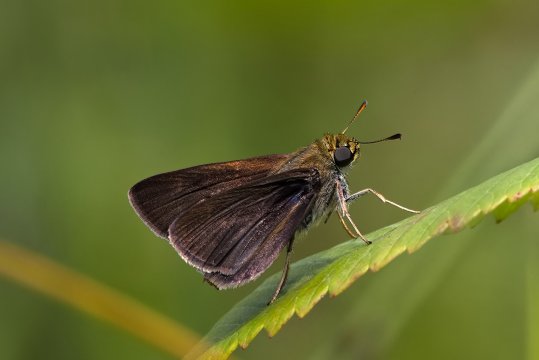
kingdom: Animalia
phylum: Arthropoda
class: Insecta
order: Lepidoptera
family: Hesperiidae
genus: Euphyes
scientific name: Euphyes vestris
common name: Dun Skipper
